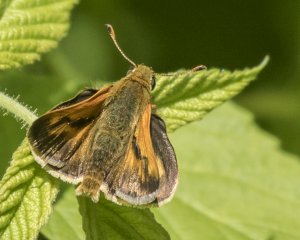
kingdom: Animalia
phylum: Arthropoda
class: Insecta
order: Lepidoptera
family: Hesperiidae
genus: Polites
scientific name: Polites
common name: Long Dash Skipper
